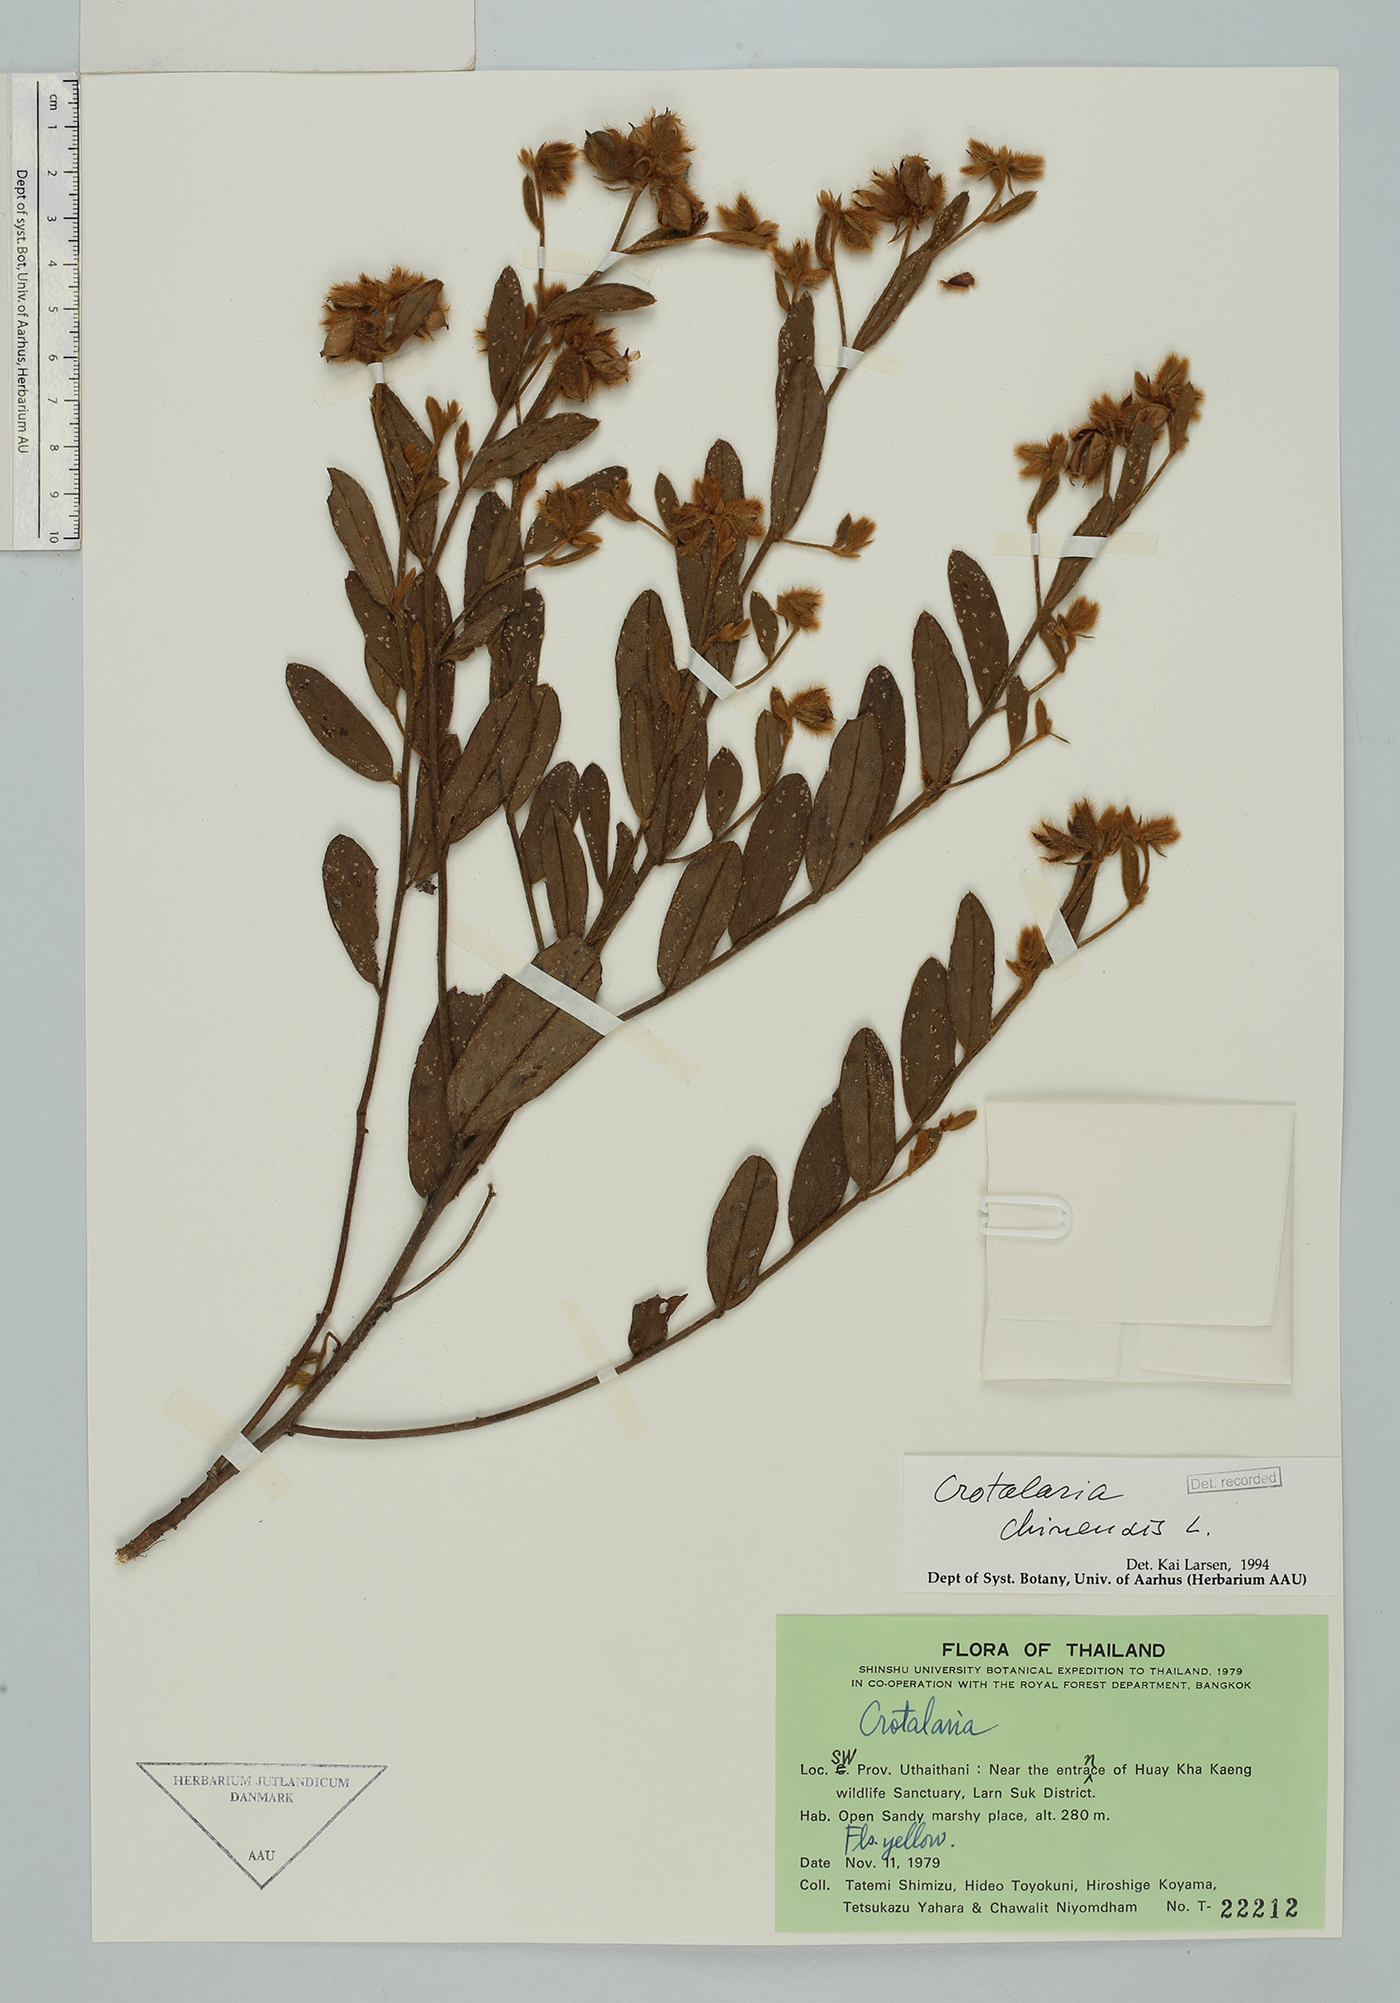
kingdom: Plantae
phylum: Tracheophyta
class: Magnoliopsida
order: Fabales
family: Fabaceae
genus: Crotalaria
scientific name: Crotalaria chinensis
